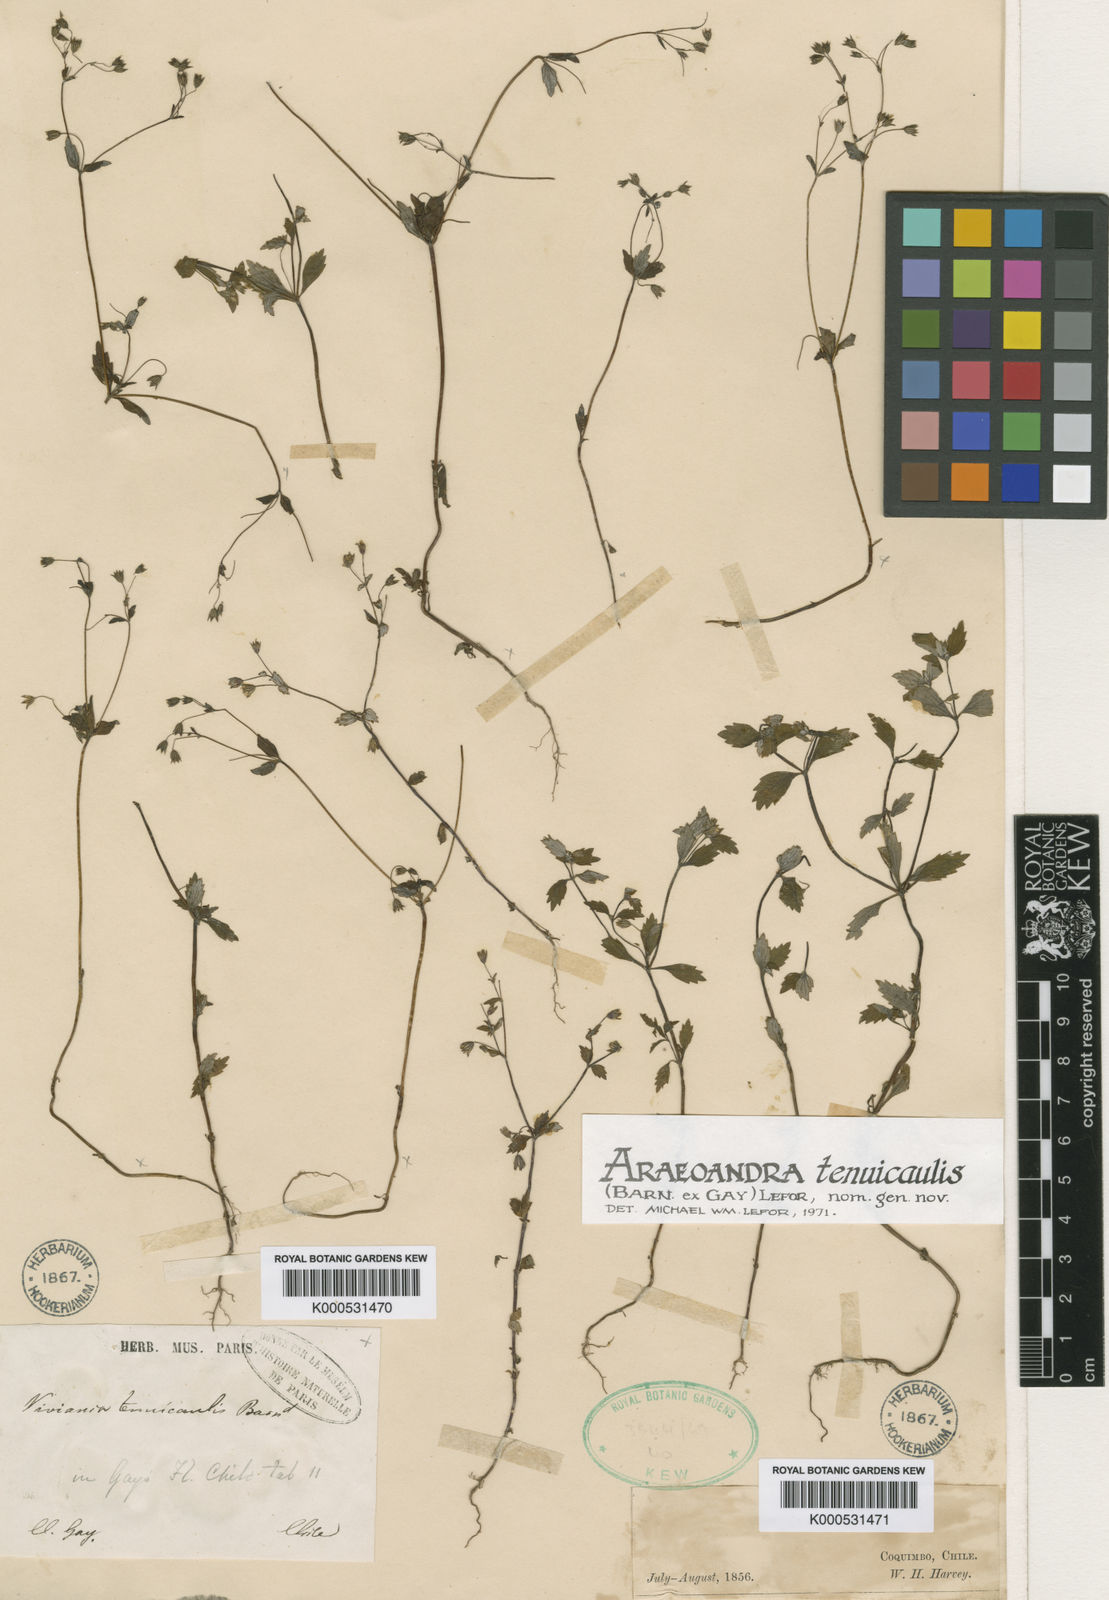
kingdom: Plantae
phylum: Tracheophyta
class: Magnoliopsida
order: Geraniales
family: Vivianiaceae
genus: Viviania
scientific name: Viviania
